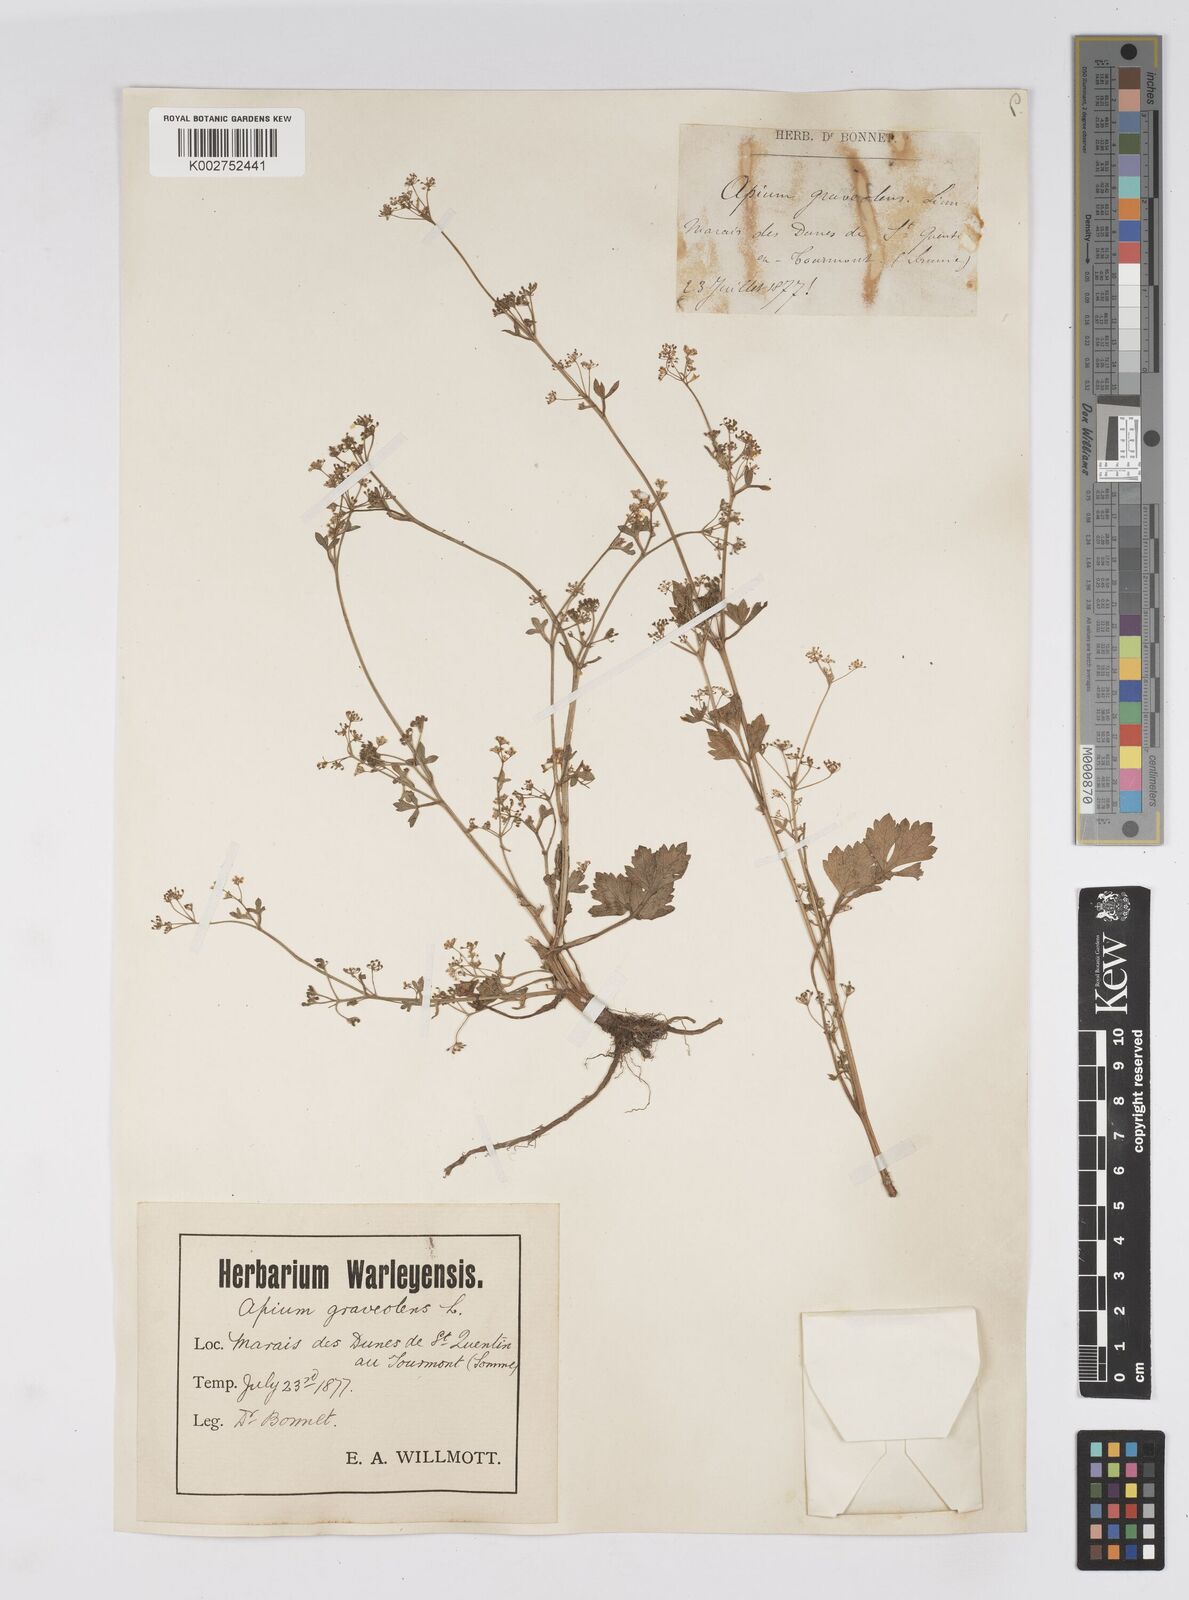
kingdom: Plantae
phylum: Tracheophyta
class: Magnoliopsida
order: Apiales
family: Apiaceae
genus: Apium
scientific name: Apium graveolens
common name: Wild celery
